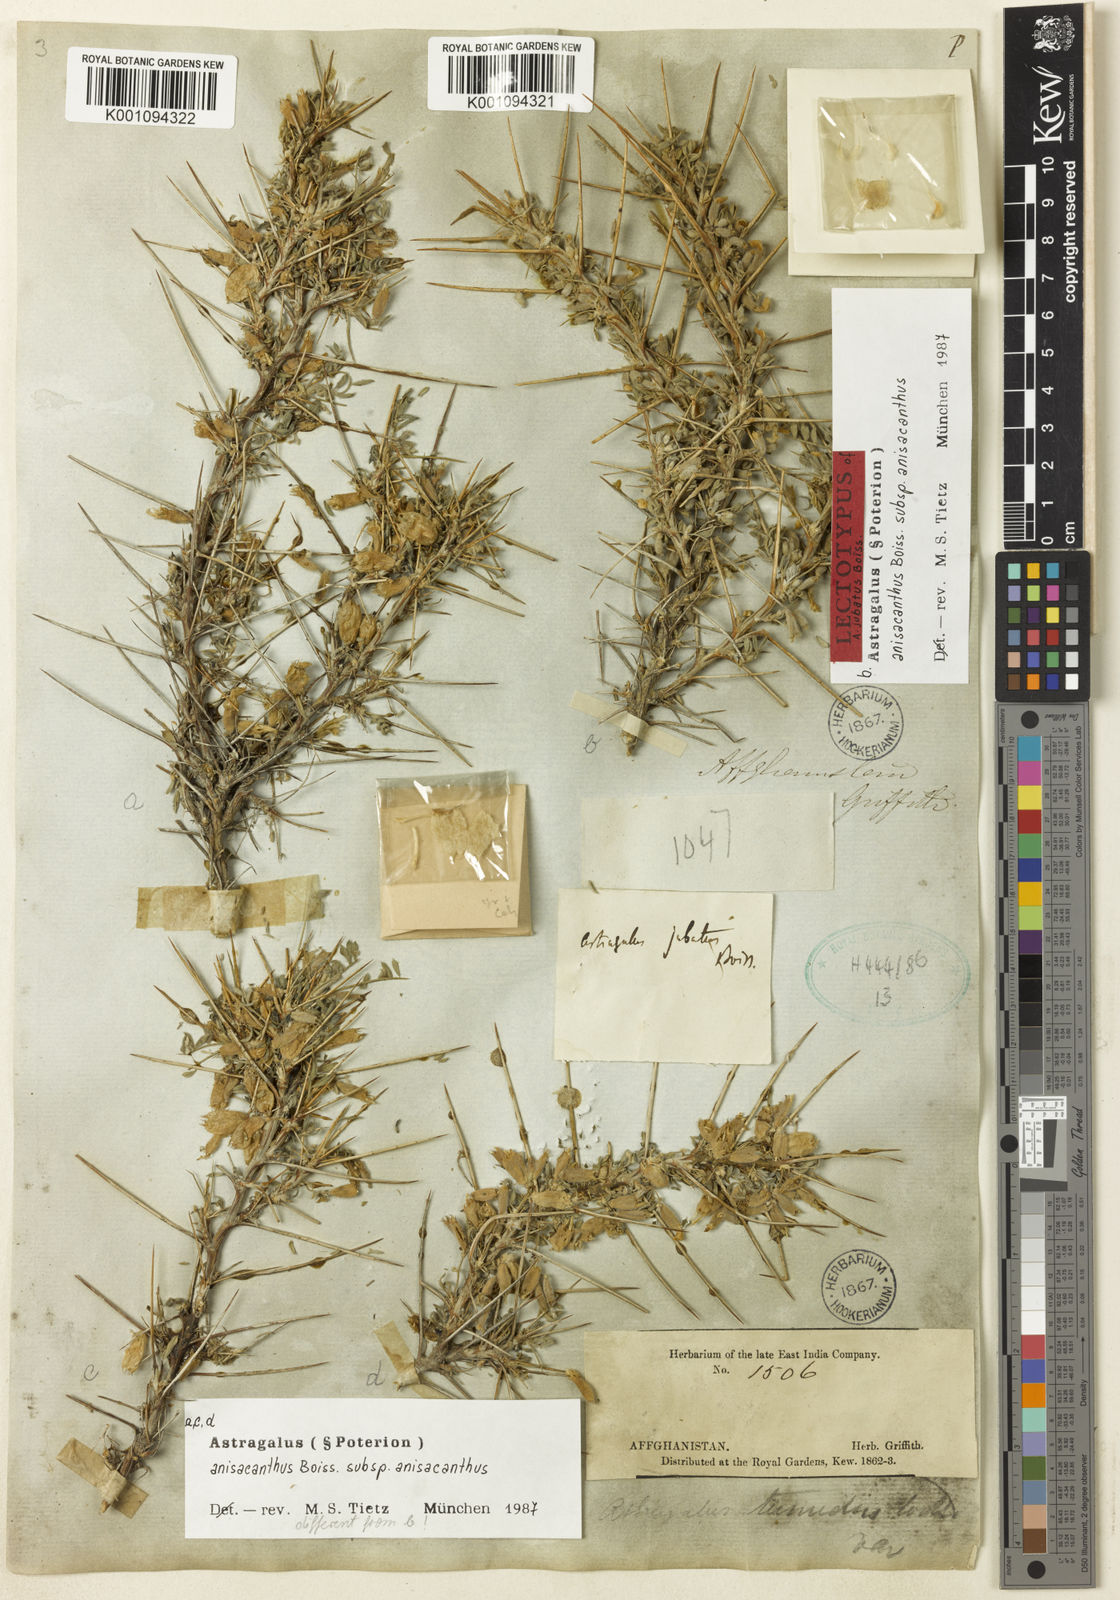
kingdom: Plantae
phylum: Tracheophyta
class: Magnoliopsida
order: Fabales
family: Fabaceae
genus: Astragalus
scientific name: Astragalus anisacanthus
